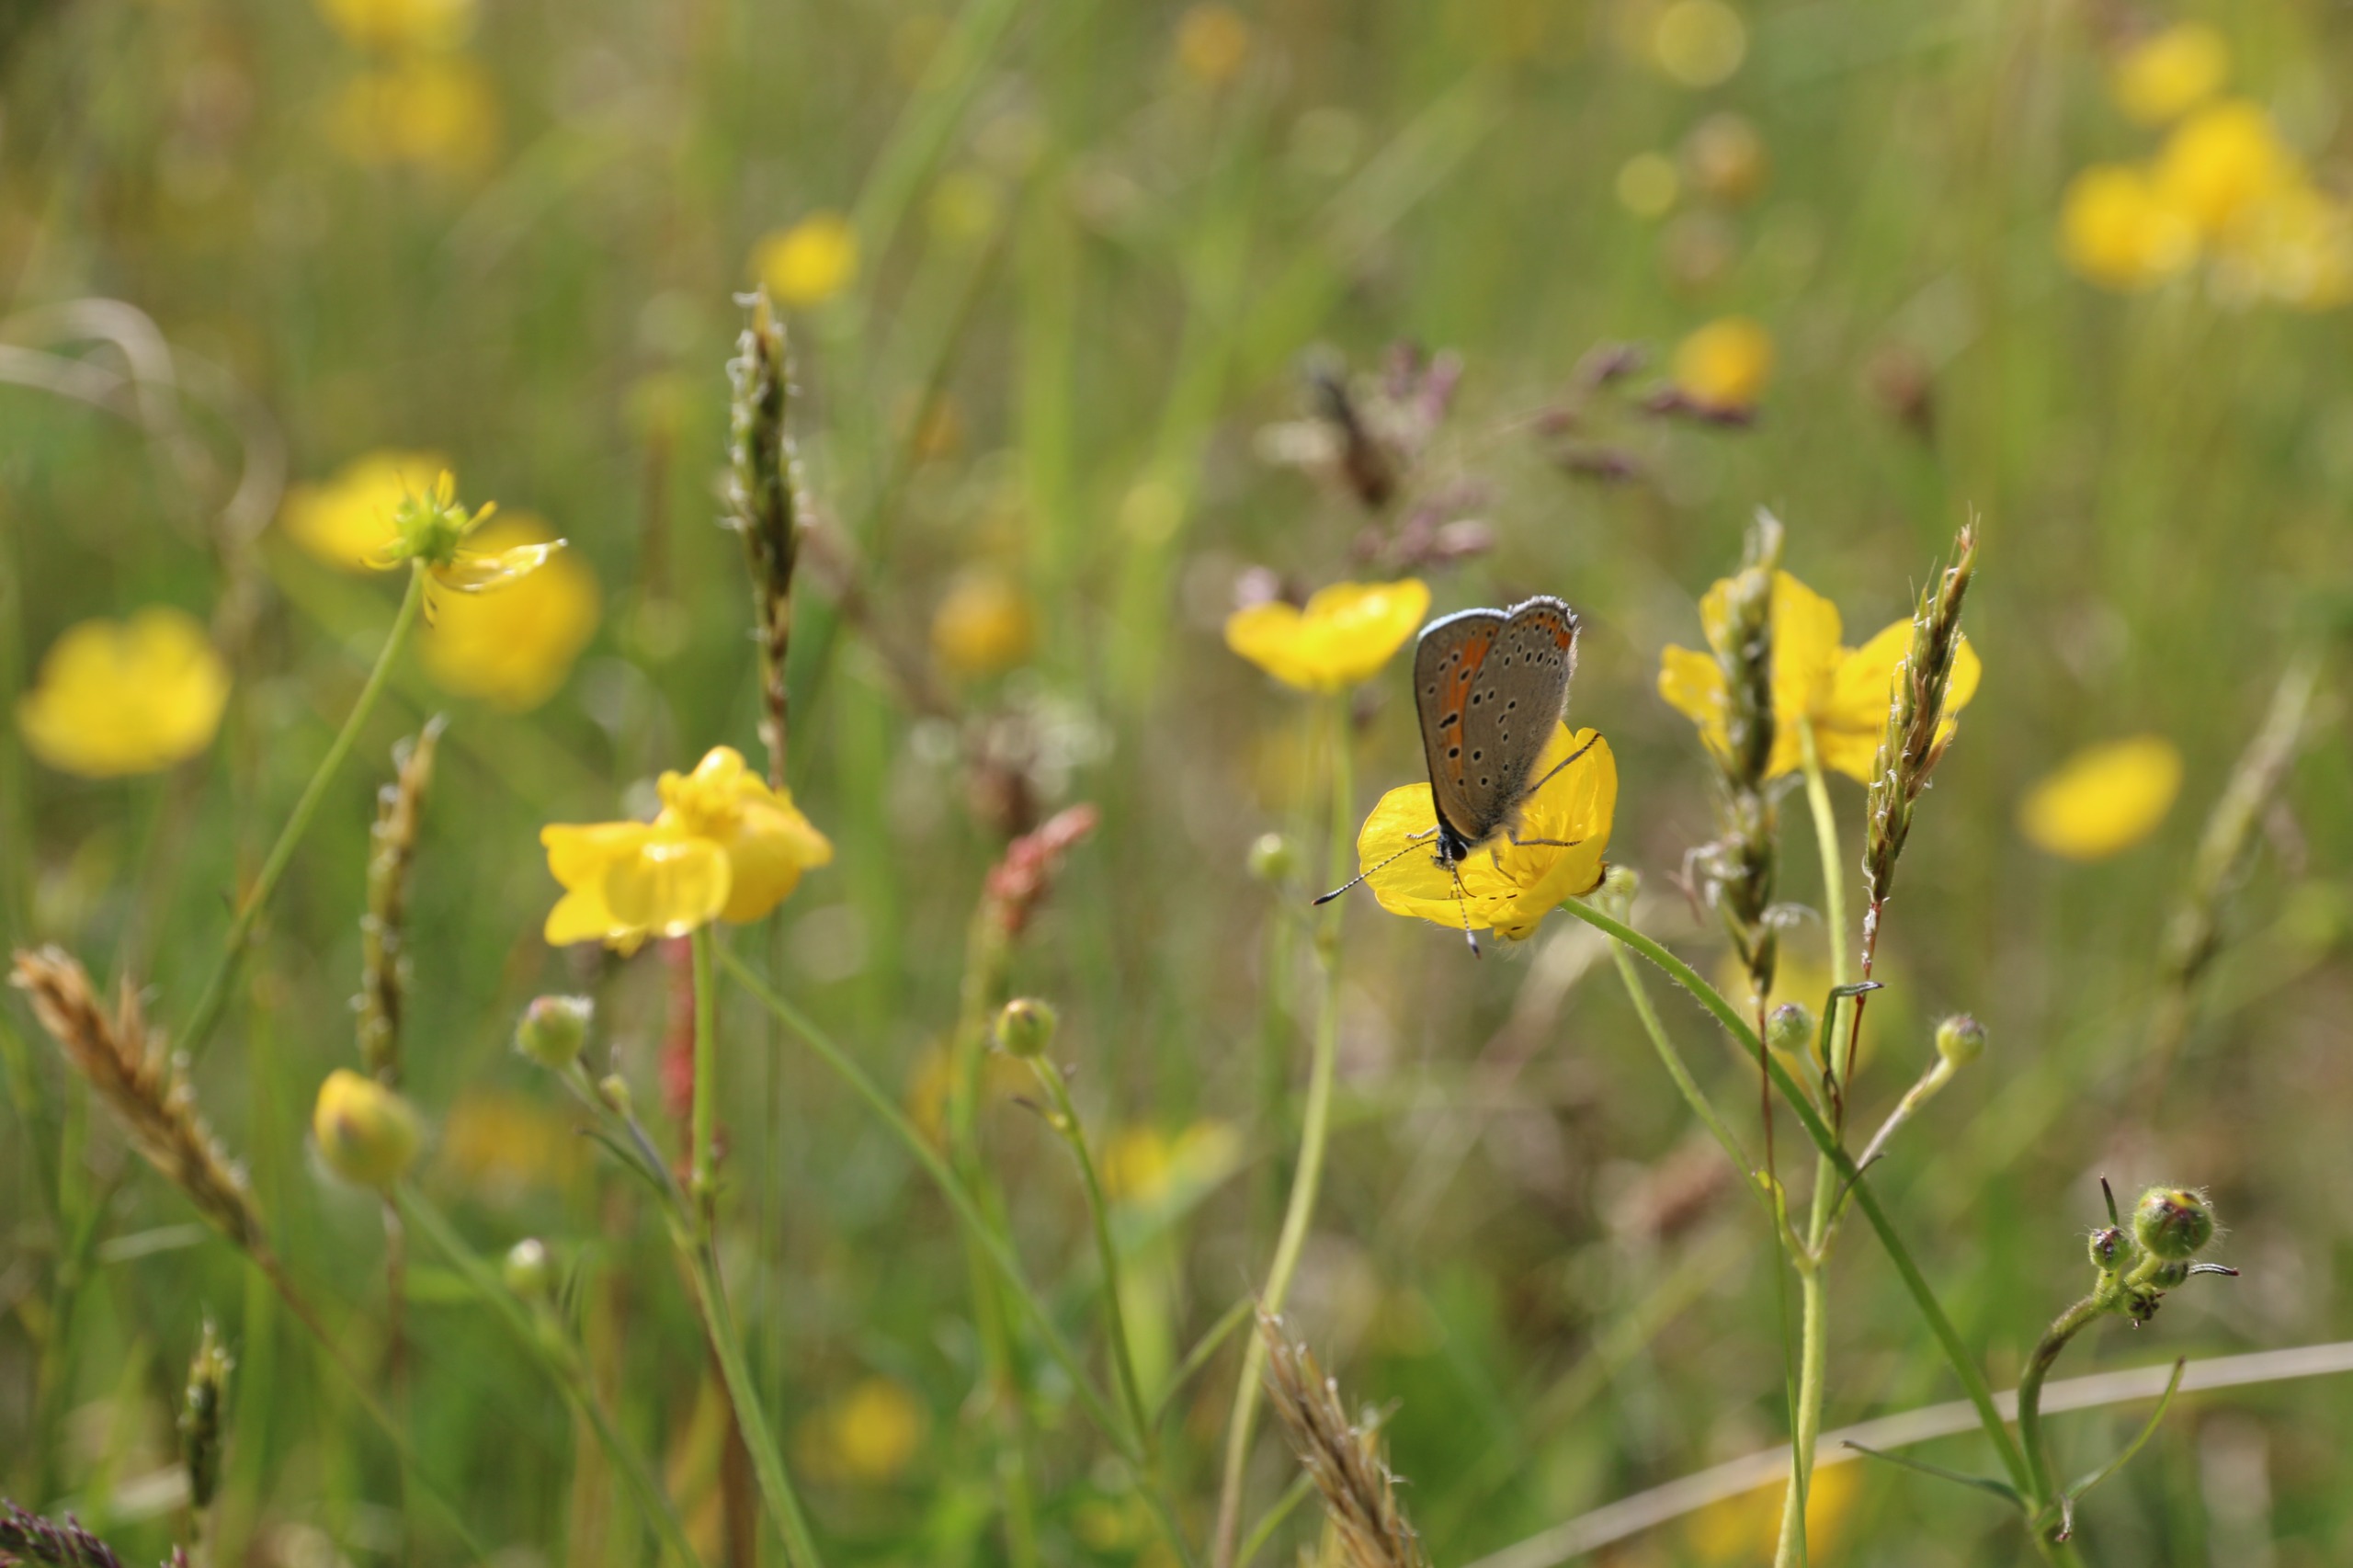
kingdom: Animalia
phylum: Arthropoda
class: Insecta
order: Lepidoptera
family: Lycaenidae
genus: Palaeochrysophanus
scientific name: Palaeochrysophanus hippothoe
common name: Violetrandet ildfugl
